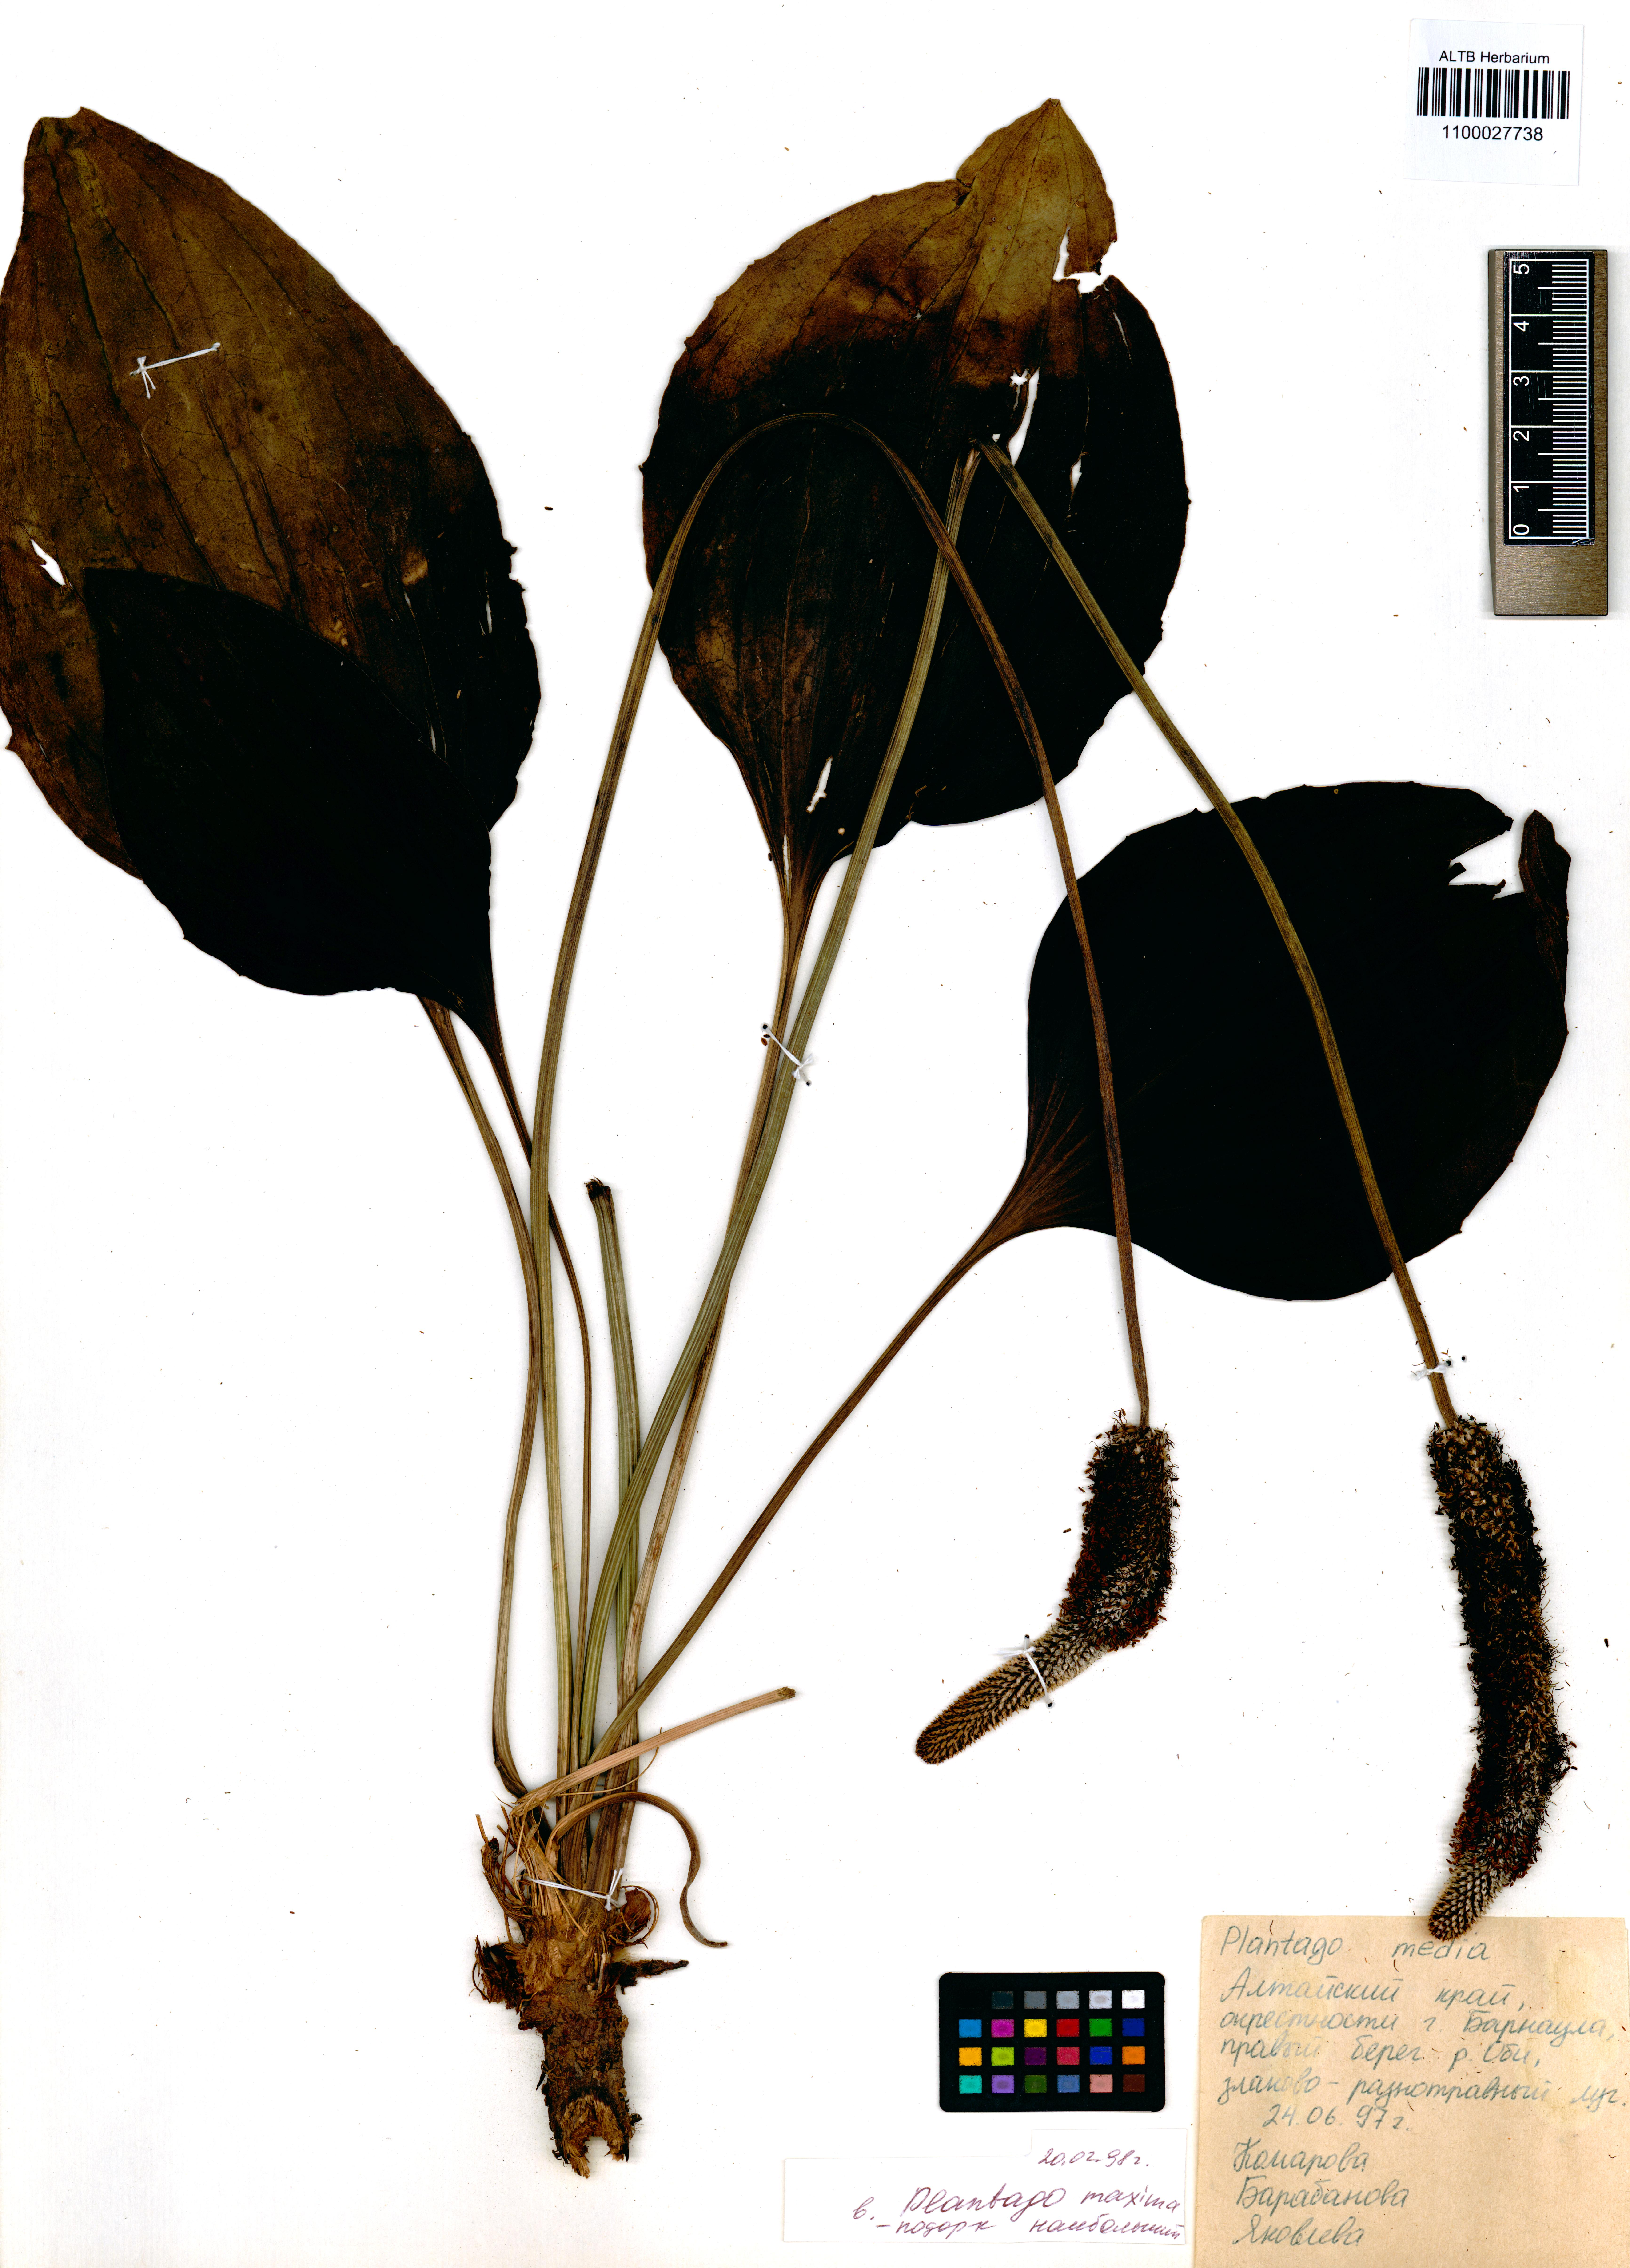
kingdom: Plantae
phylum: Tracheophyta
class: Magnoliopsida
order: Lamiales
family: Plantaginaceae
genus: Plantago
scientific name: Plantago maxima
